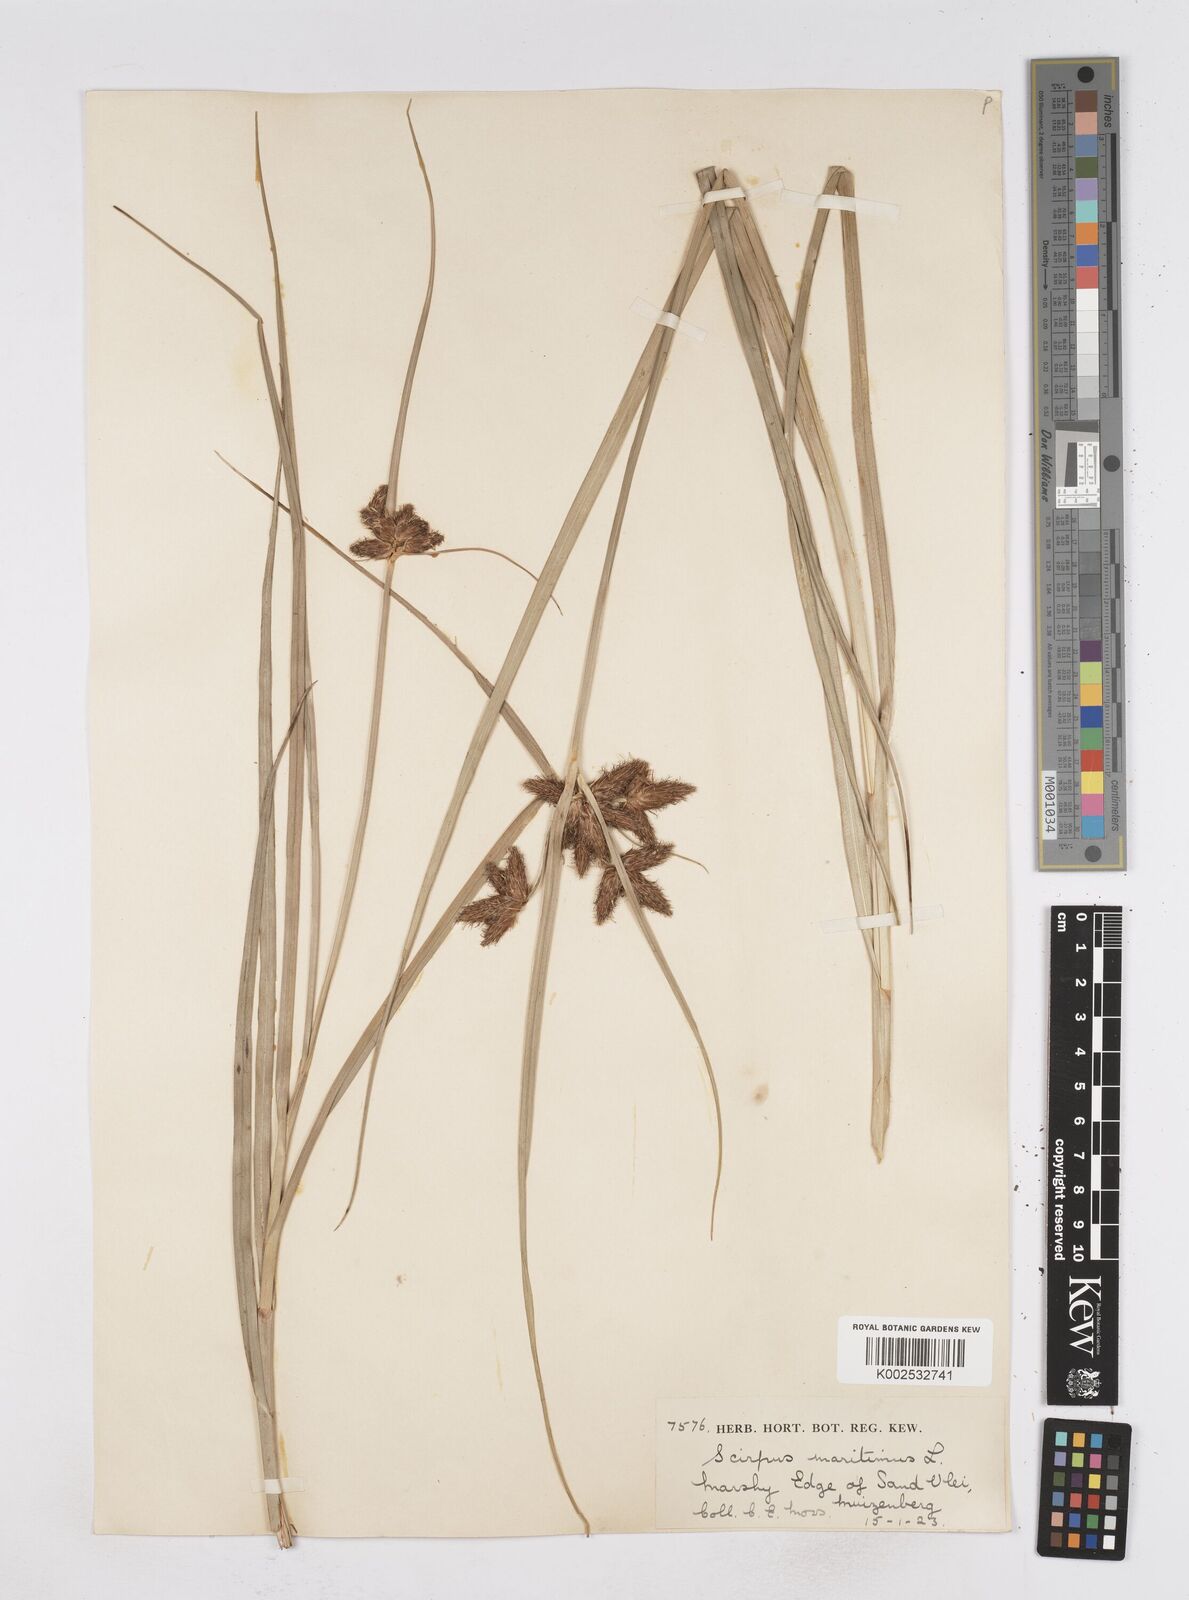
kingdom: Plantae
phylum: Tracheophyta
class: Liliopsida
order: Poales
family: Cyperaceae
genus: Bolboschoenus
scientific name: Bolboschoenus maritimus
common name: Sea club-rush
